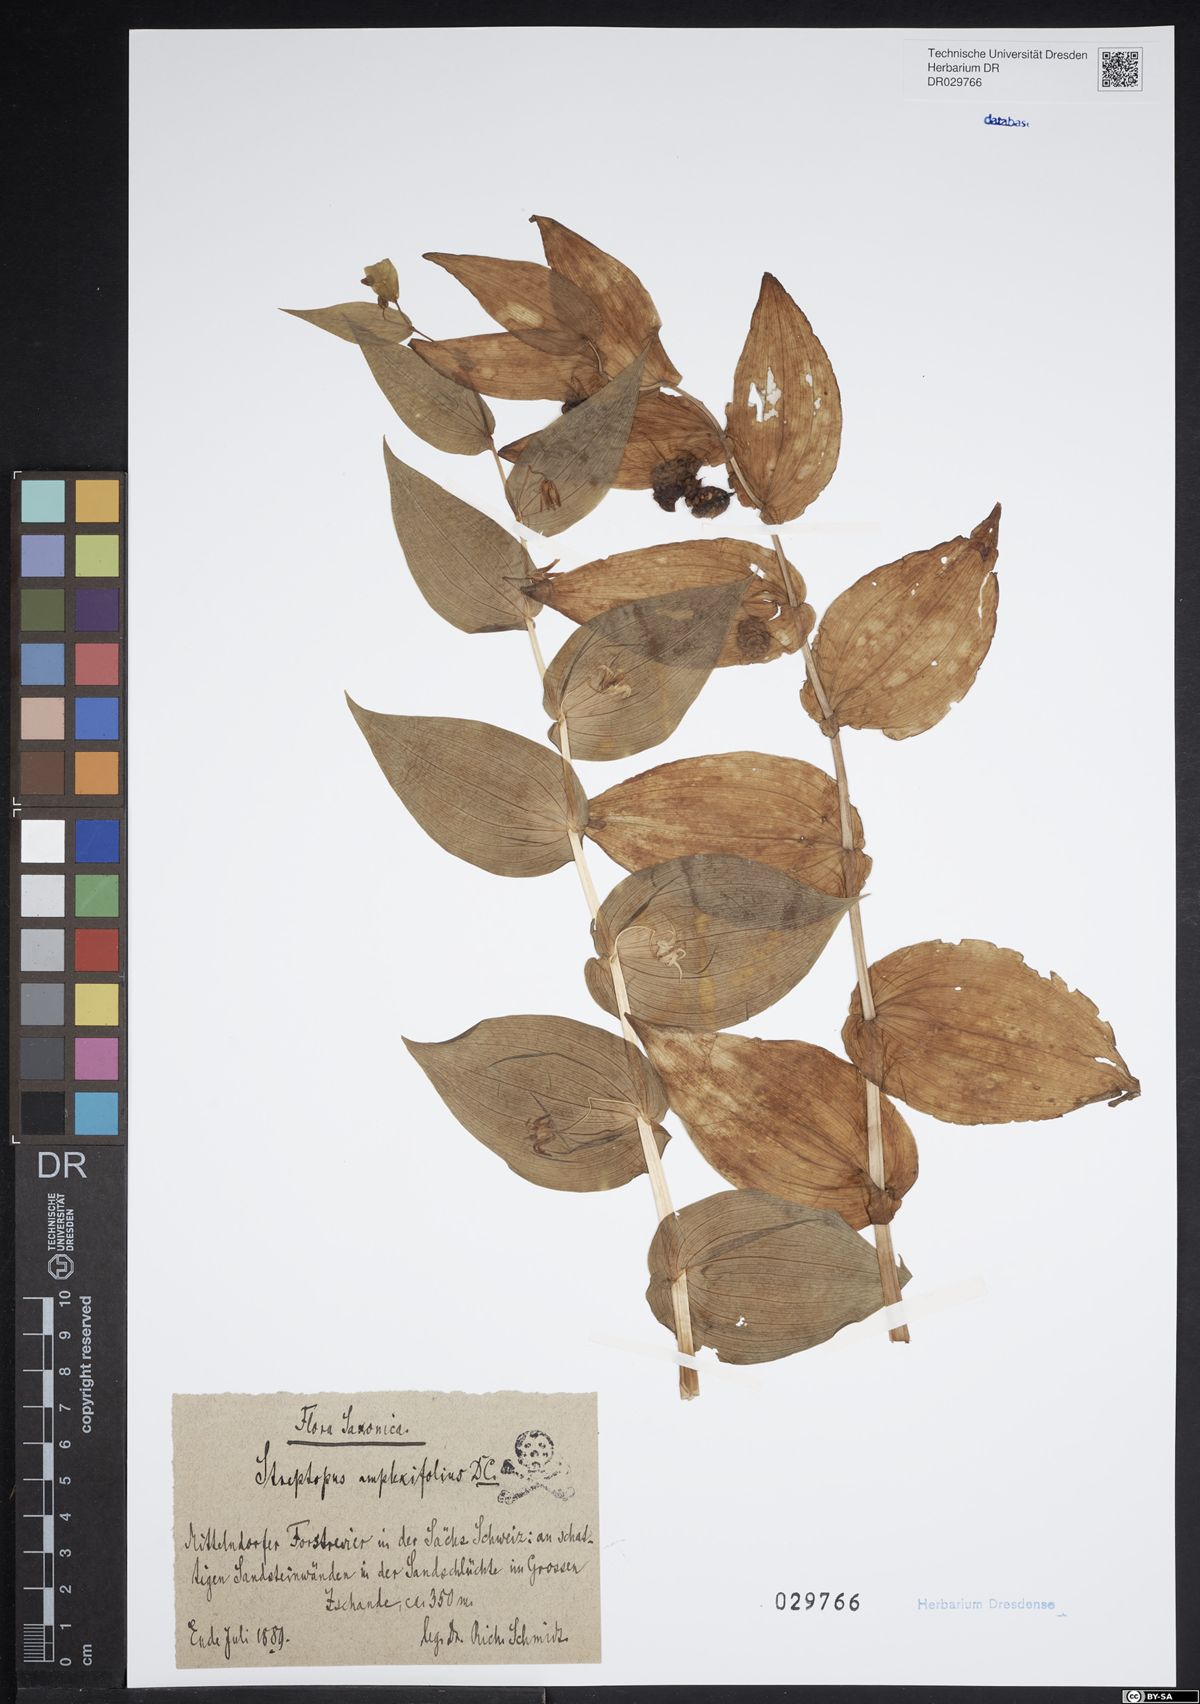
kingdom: Plantae
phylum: Tracheophyta
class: Liliopsida
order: Liliales
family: Liliaceae
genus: Streptopus
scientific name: Streptopus amplexifolius
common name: Clasp twisted stalk
